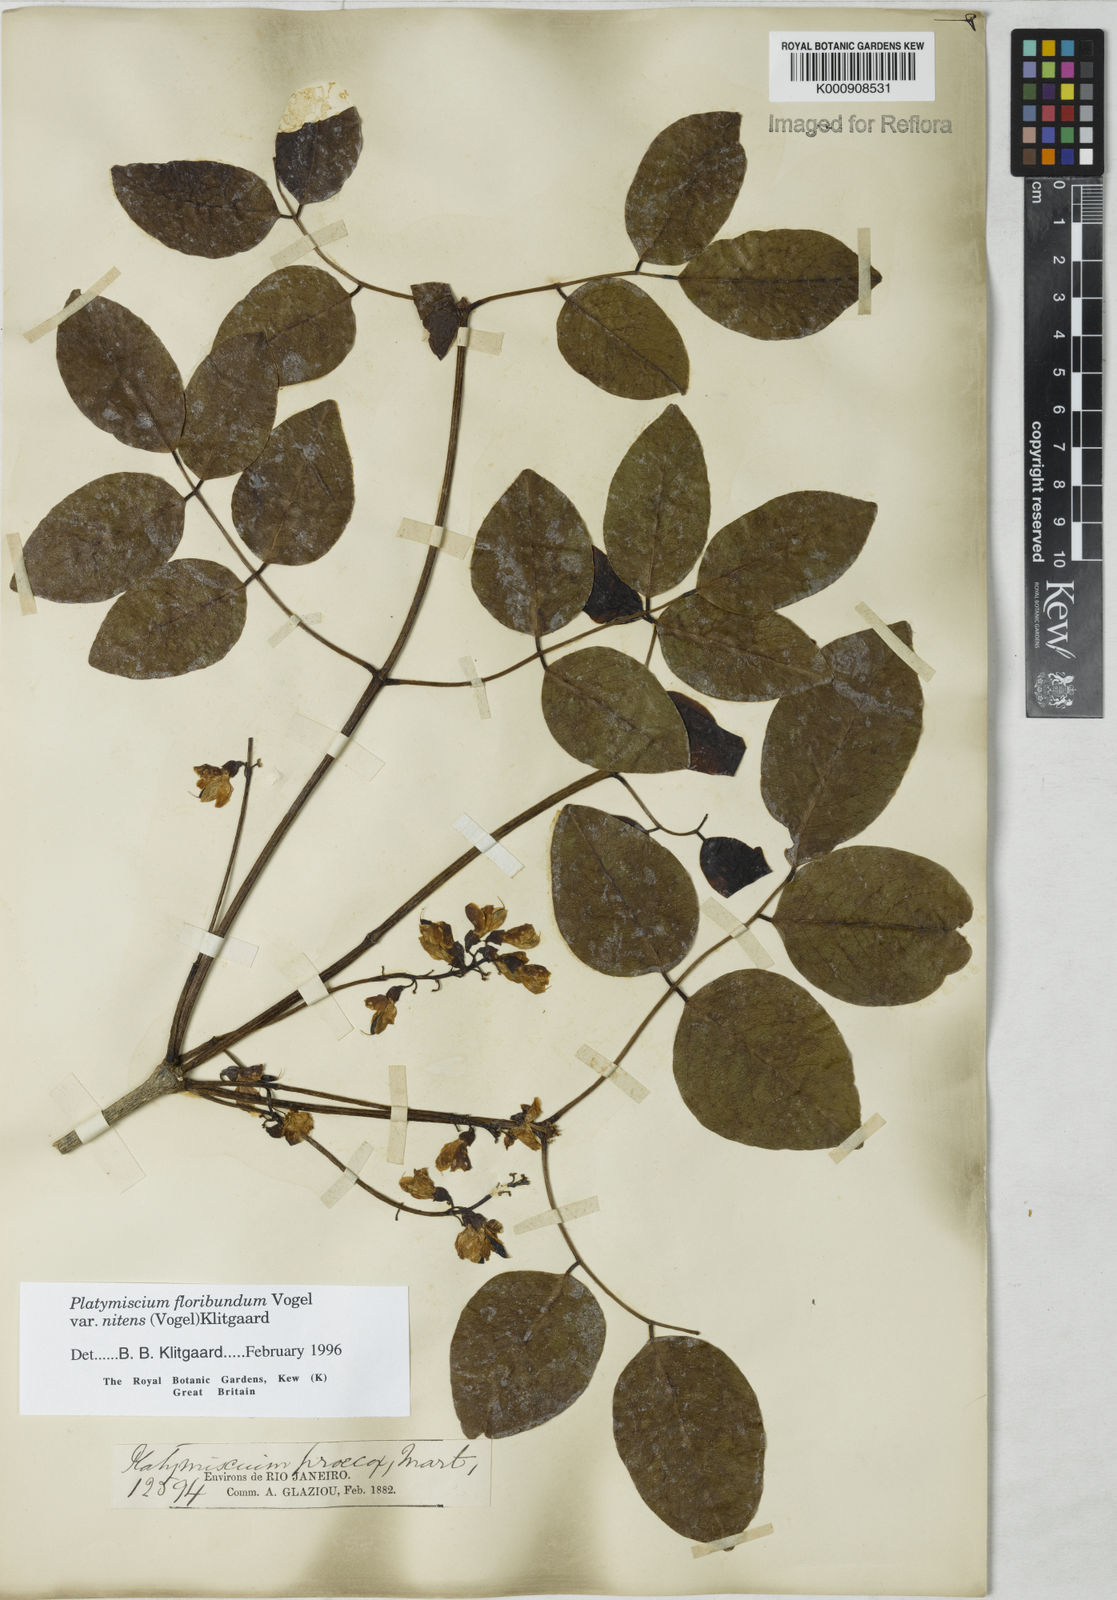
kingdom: Plantae
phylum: Tracheophyta
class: Magnoliopsida
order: Fabales
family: Fabaceae
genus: Platymiscium
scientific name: Platymiscium floribundum
